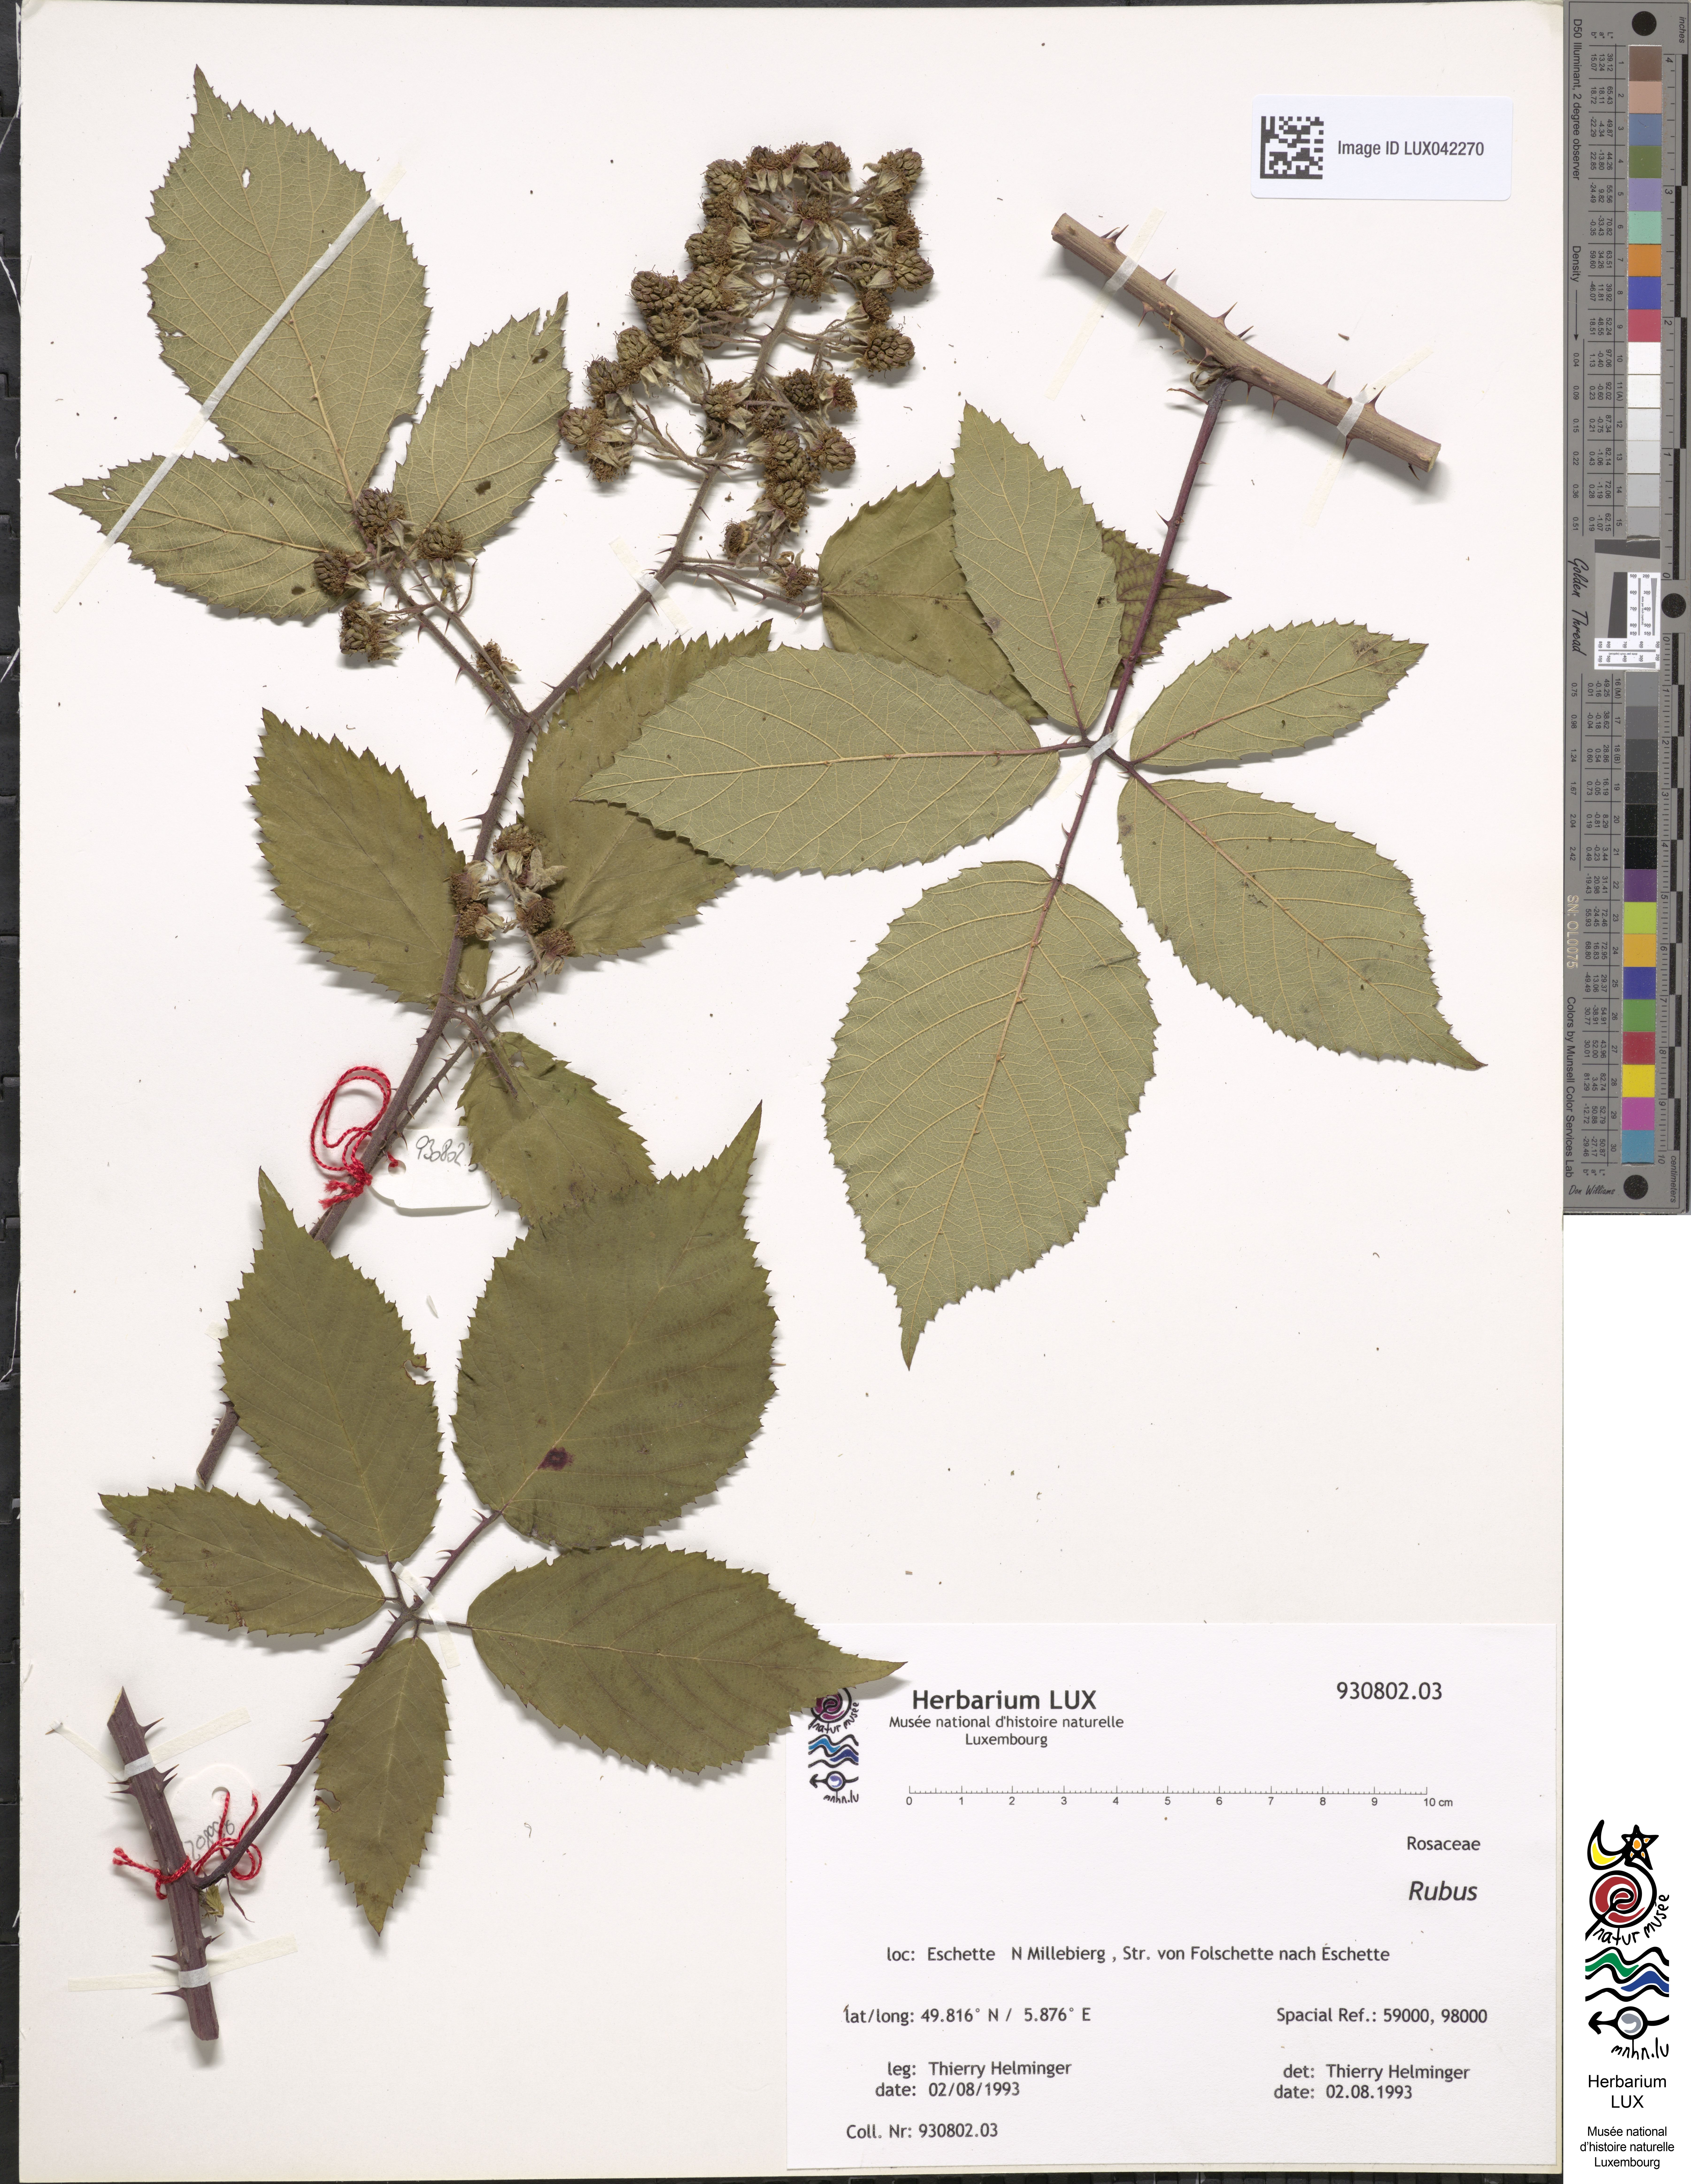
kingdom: Plantae
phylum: Tracheophyta
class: Magnoliopsida
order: Rosales
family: Rosaceae
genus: Rubus
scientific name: Rubus
